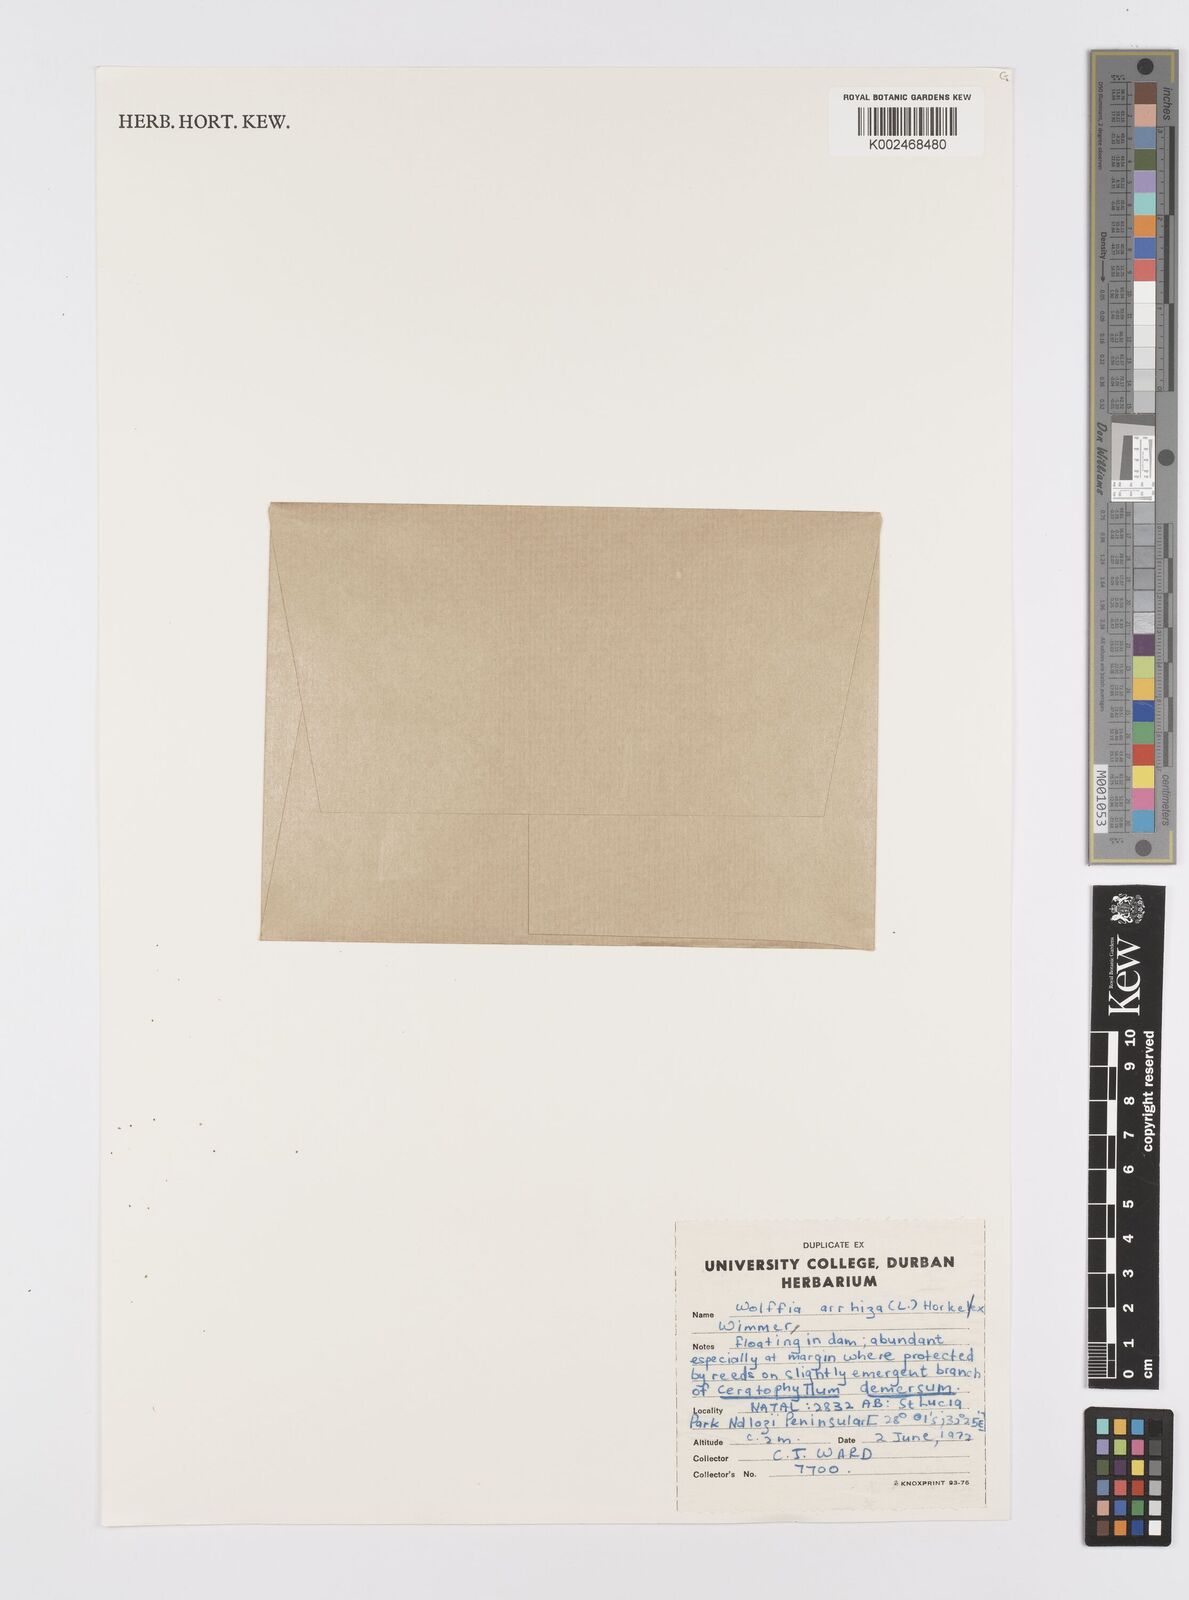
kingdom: Plantae
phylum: Tracheophyta
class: Liliopsida
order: Alismatales
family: Araceae
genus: Wolffia
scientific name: Wolffia arrhiza
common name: Rootless duckweed
